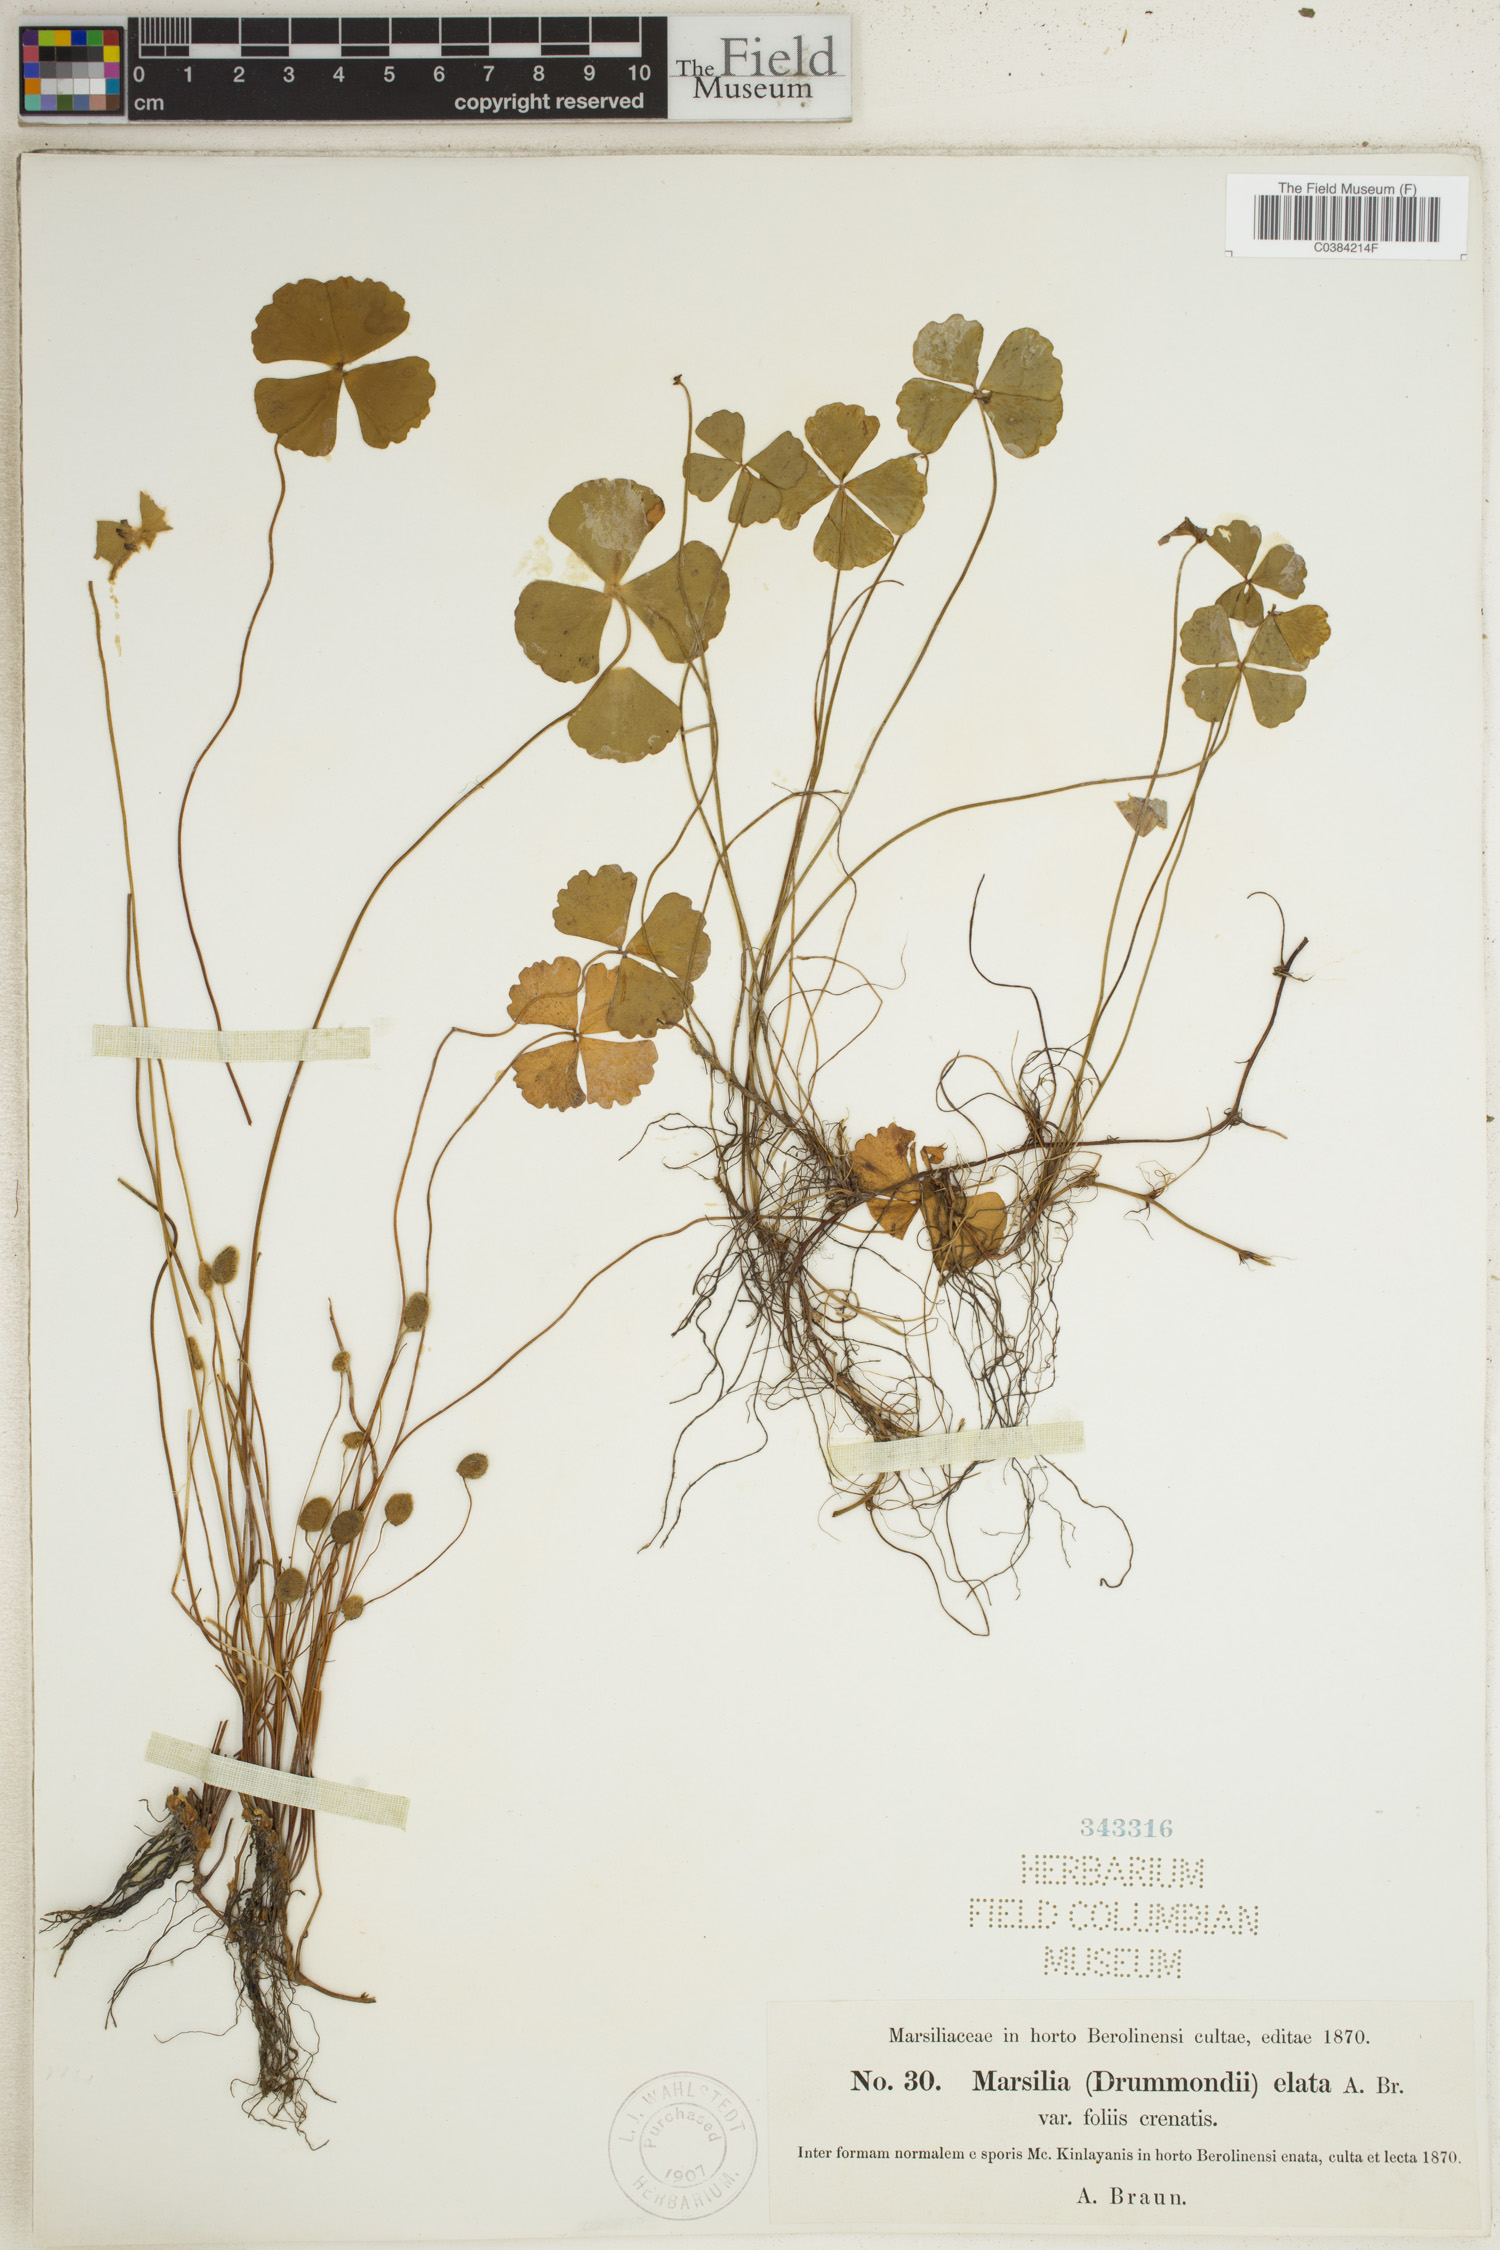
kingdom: Plantae
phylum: Tracheophyta
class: Polypodiopsida
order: Salviniales
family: Marsileaceae
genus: Marsilea
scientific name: Marsilea drummondii
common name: Nardoo
